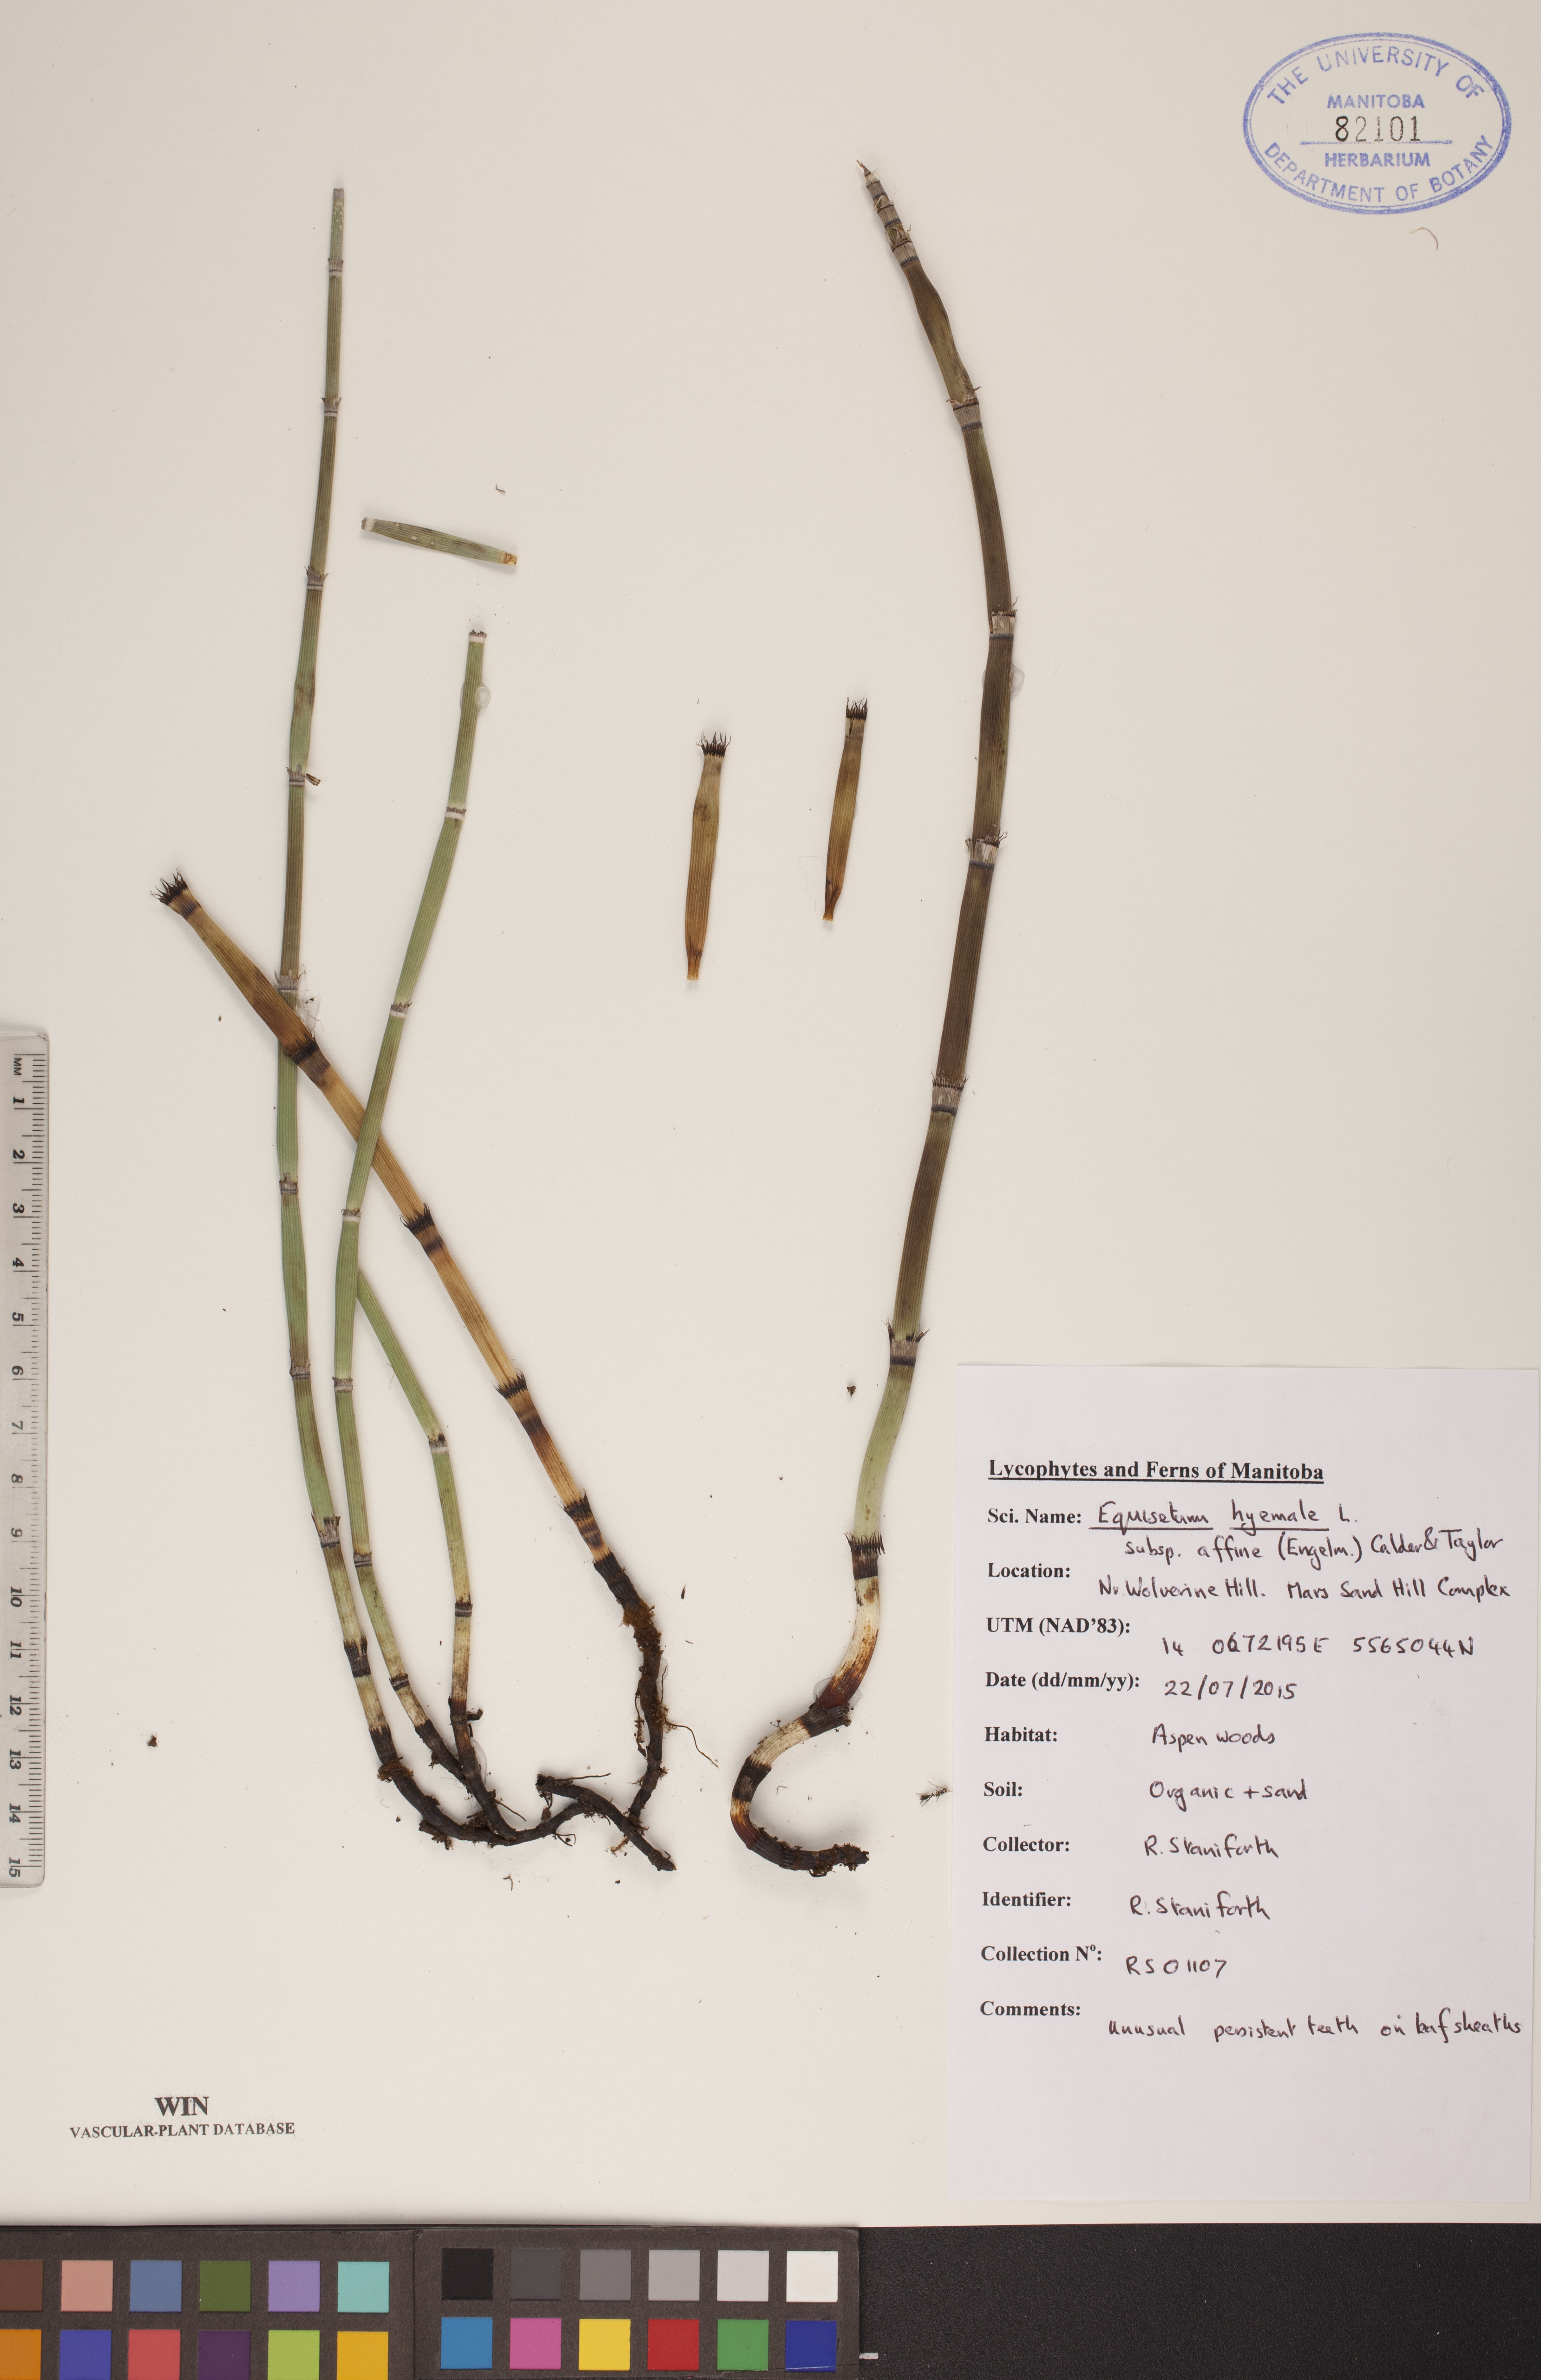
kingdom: Plantae
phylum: Tracheophyta
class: Polypodiopsida
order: Equisetales
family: Equisetaceae
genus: Equisetum
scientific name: Equisetum hyemale
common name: Rough horsetail
